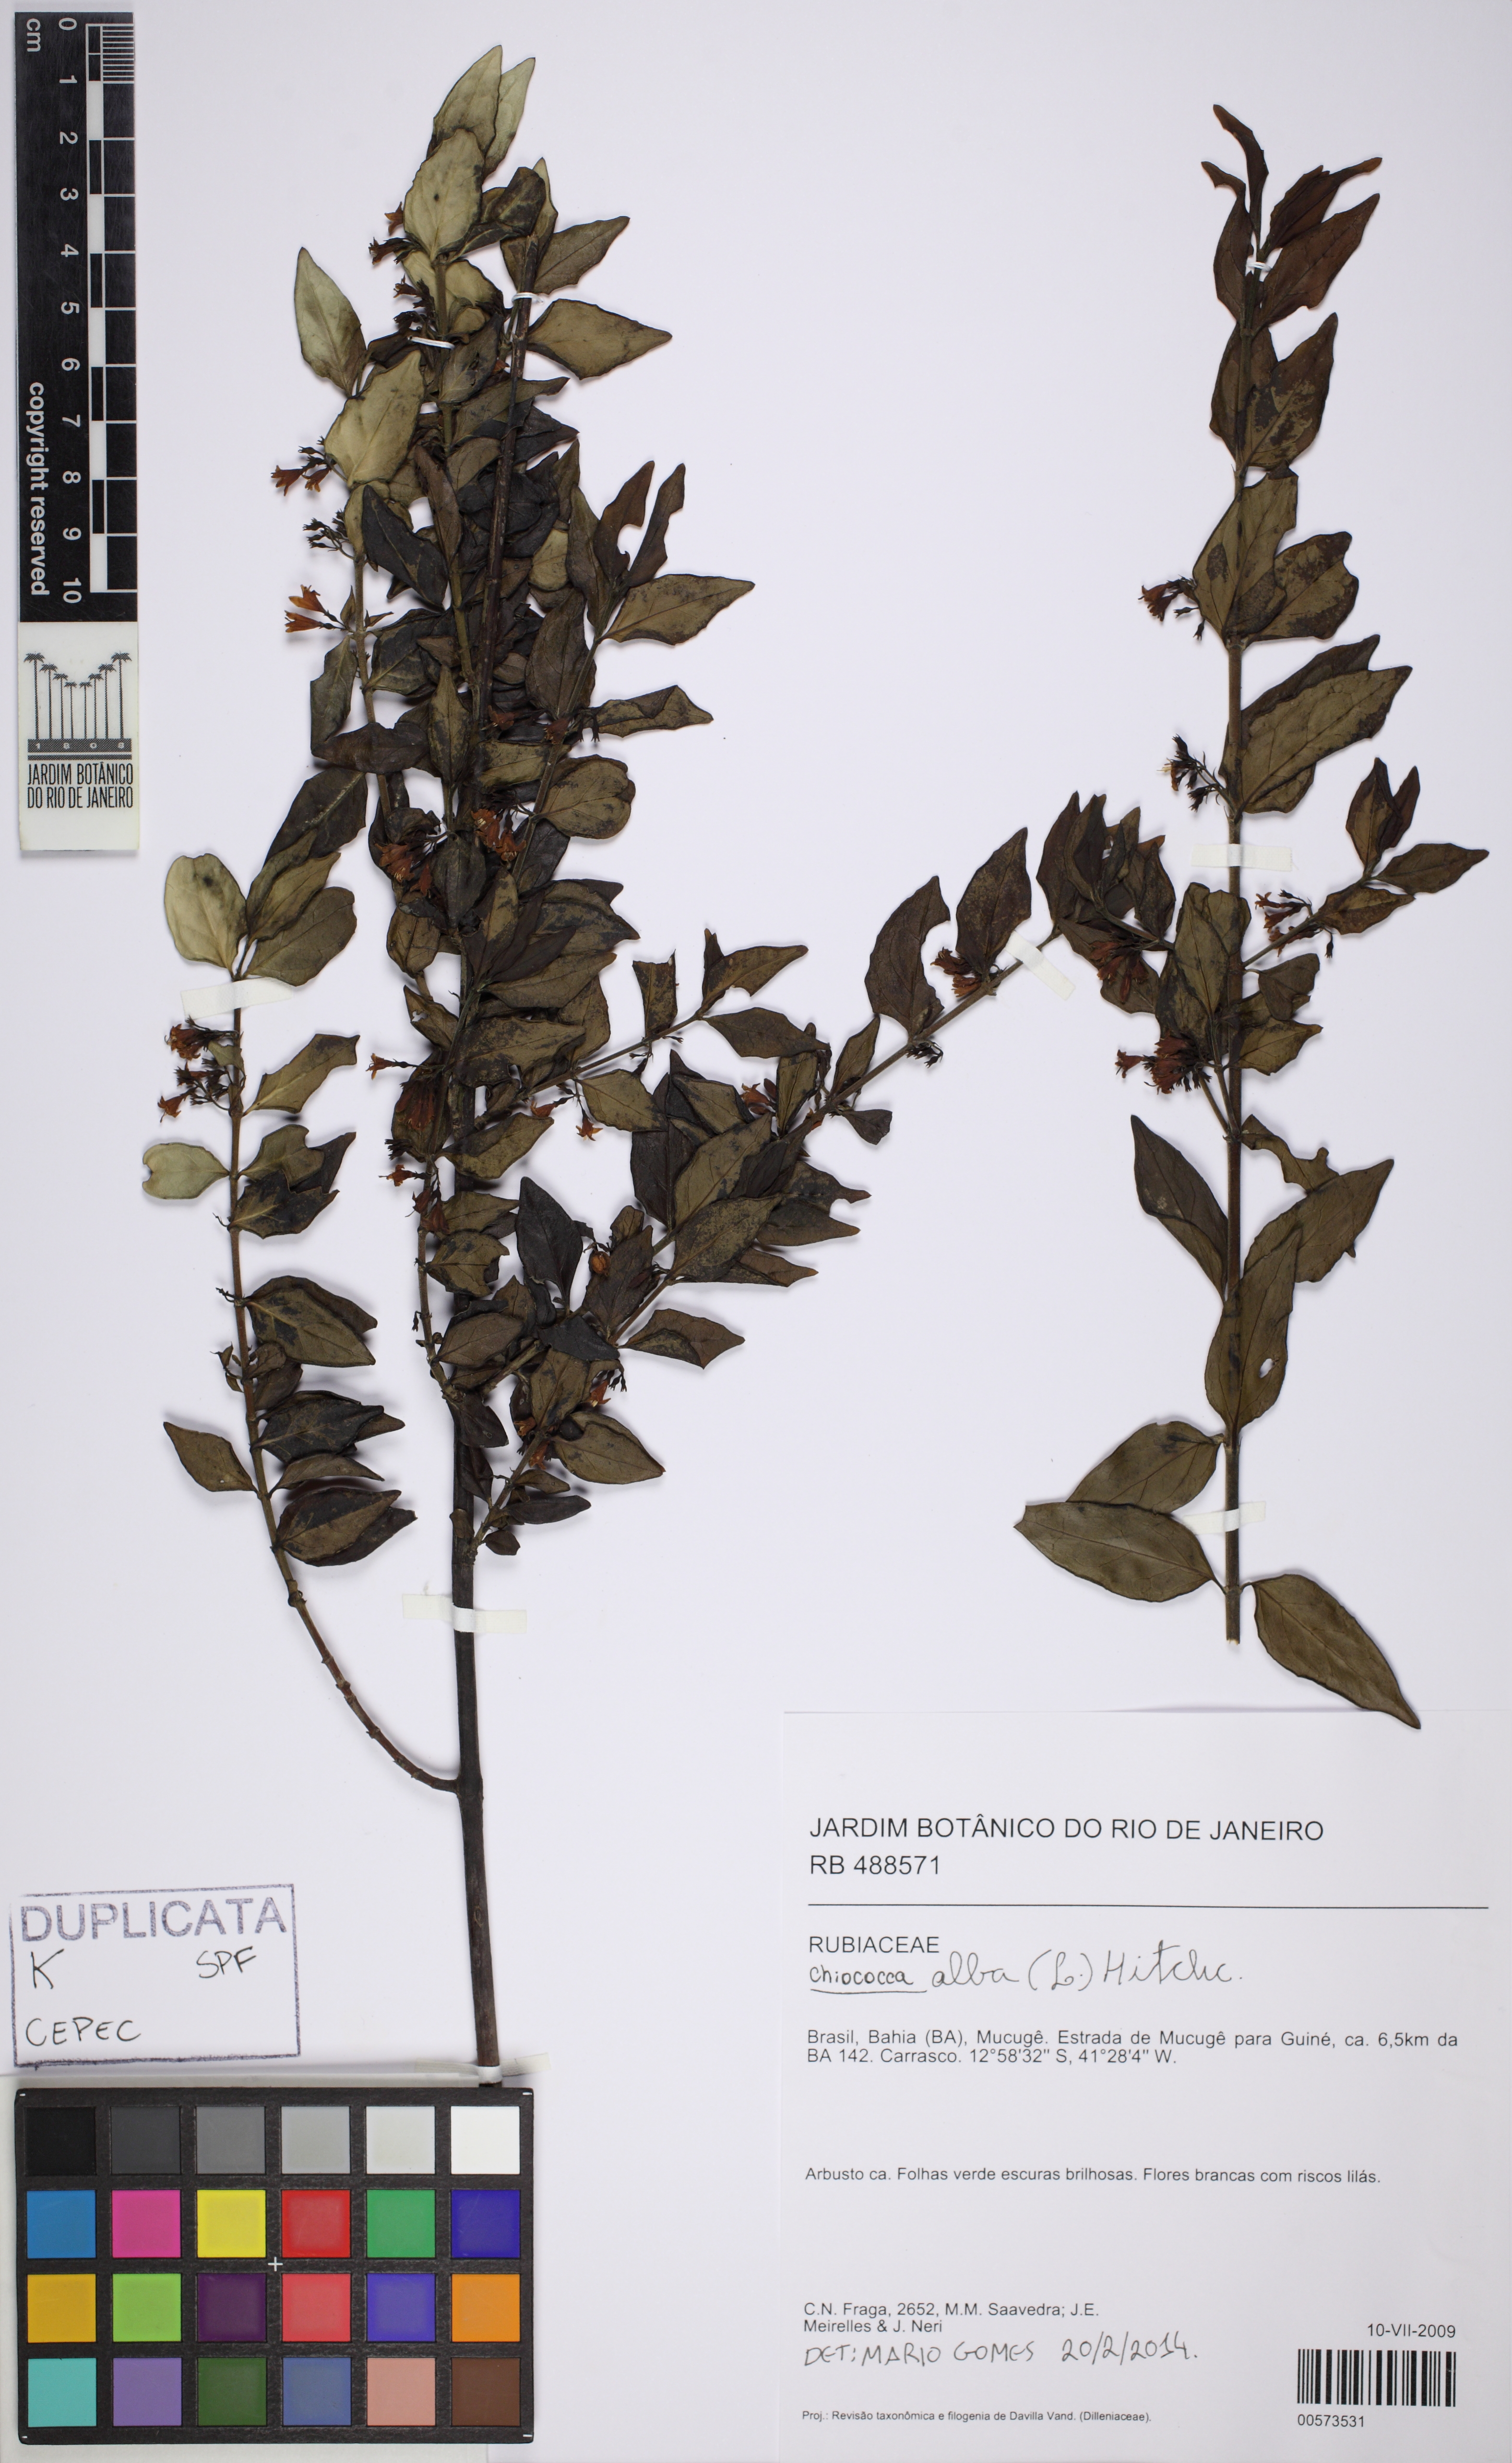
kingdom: Plantae
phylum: Tracheophyta
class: Magnoliopsida
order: Gentianales
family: Rubiaceae
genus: Chiococca
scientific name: Chiococca alba
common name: Snowberry
